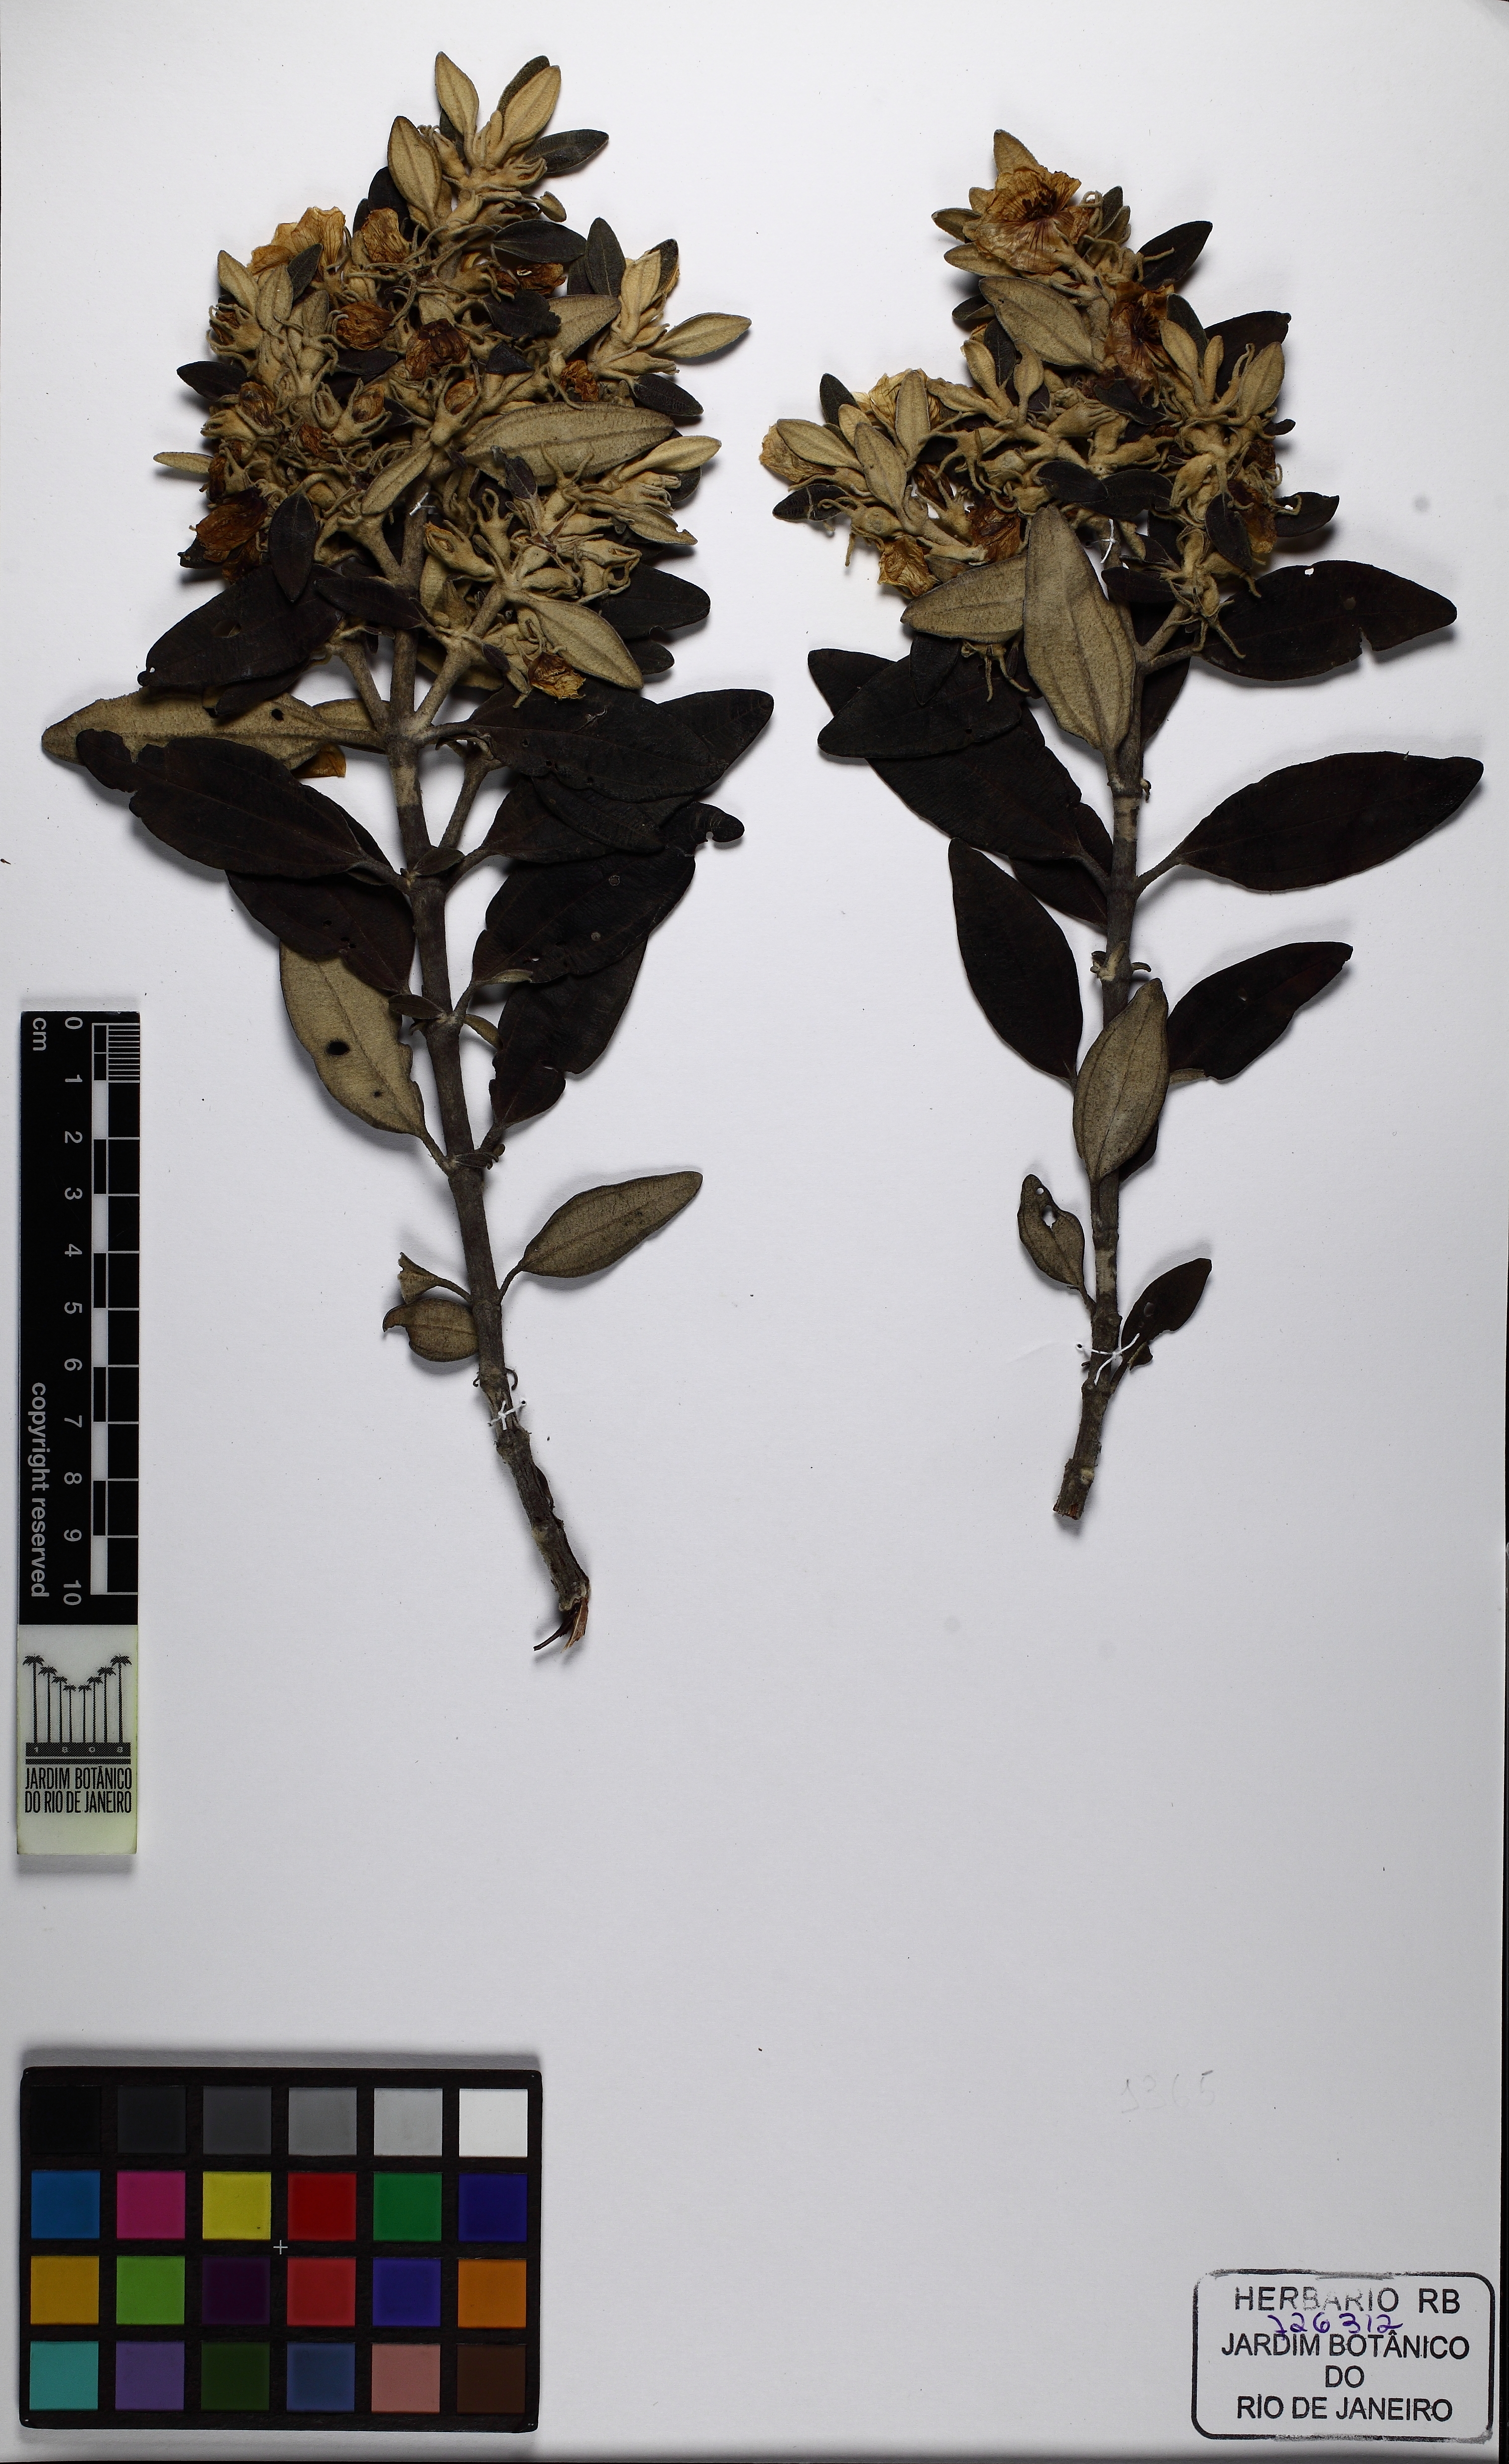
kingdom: Plantae
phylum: Tracheophyta
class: Magnoliopsida
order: Myrtales
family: Melastomataceae
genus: Microlicia
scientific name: Microlicia laniflora
